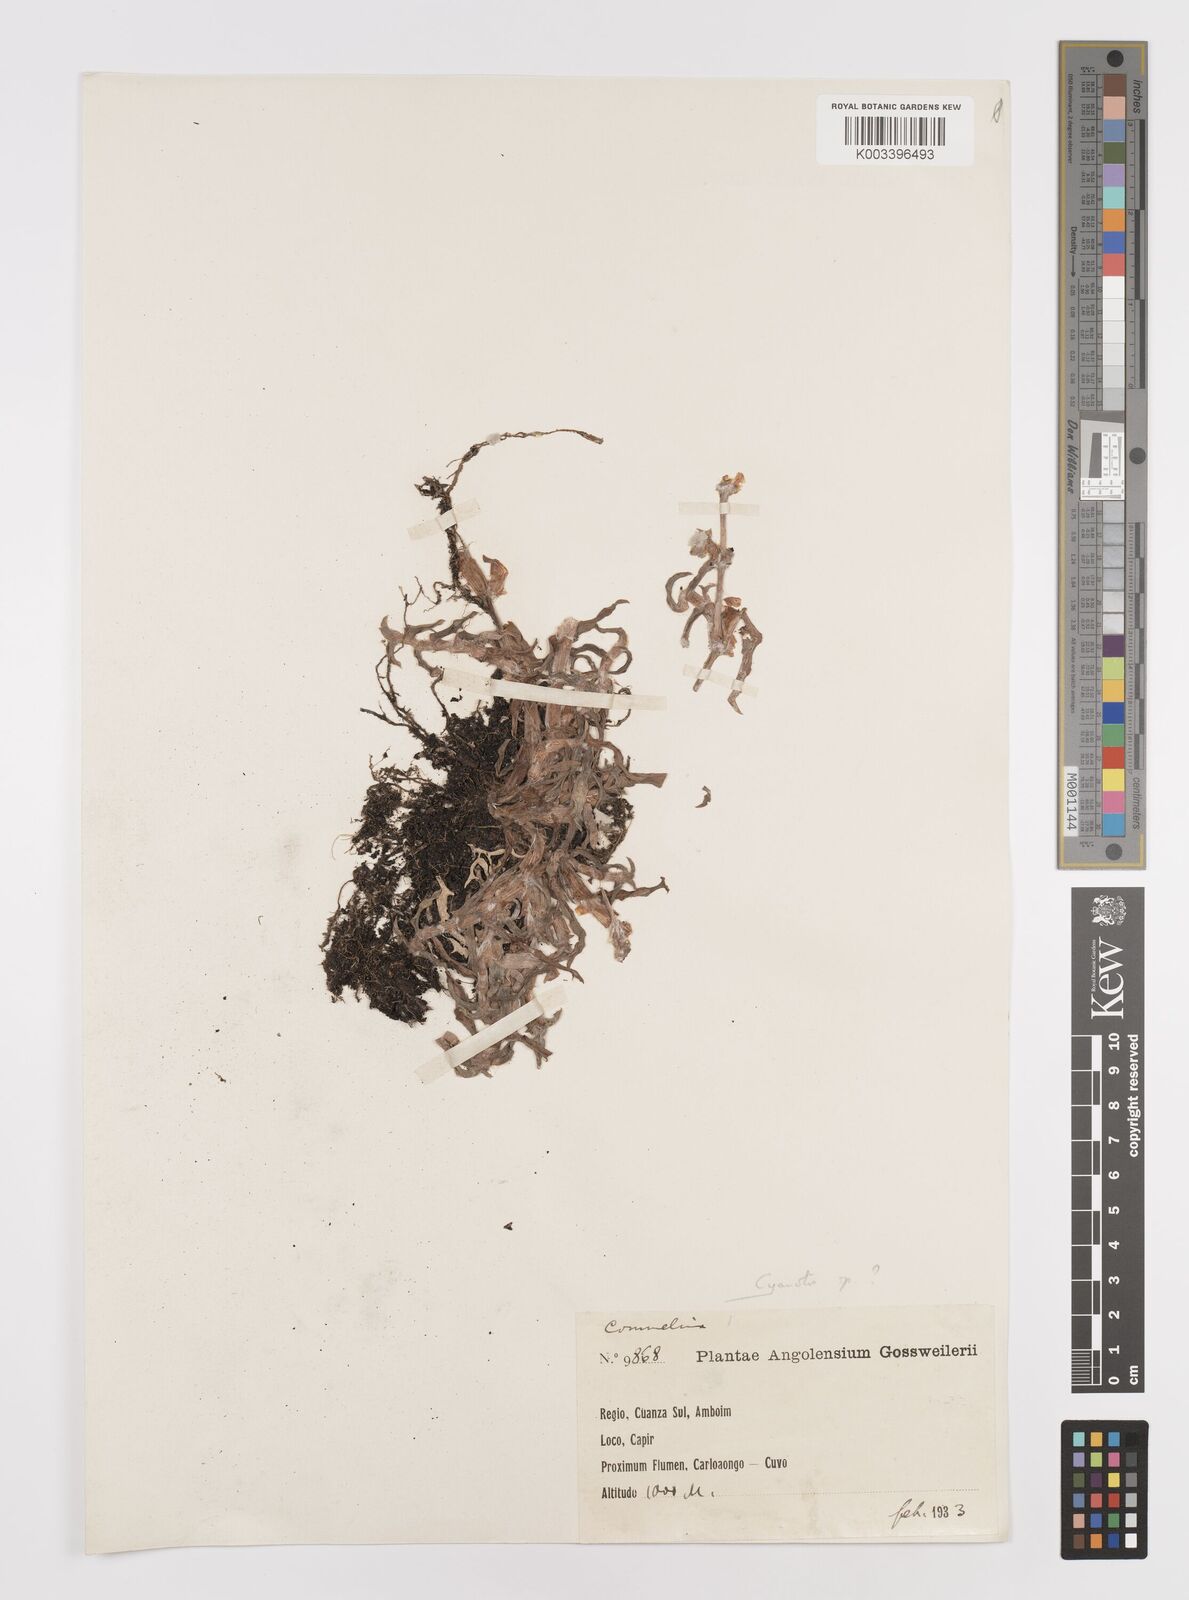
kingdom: Plantae
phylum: Tracheophyta
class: Liliopsida
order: Commelinales
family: Commelinaceae
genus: Cyanotis
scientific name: Cyanotis
